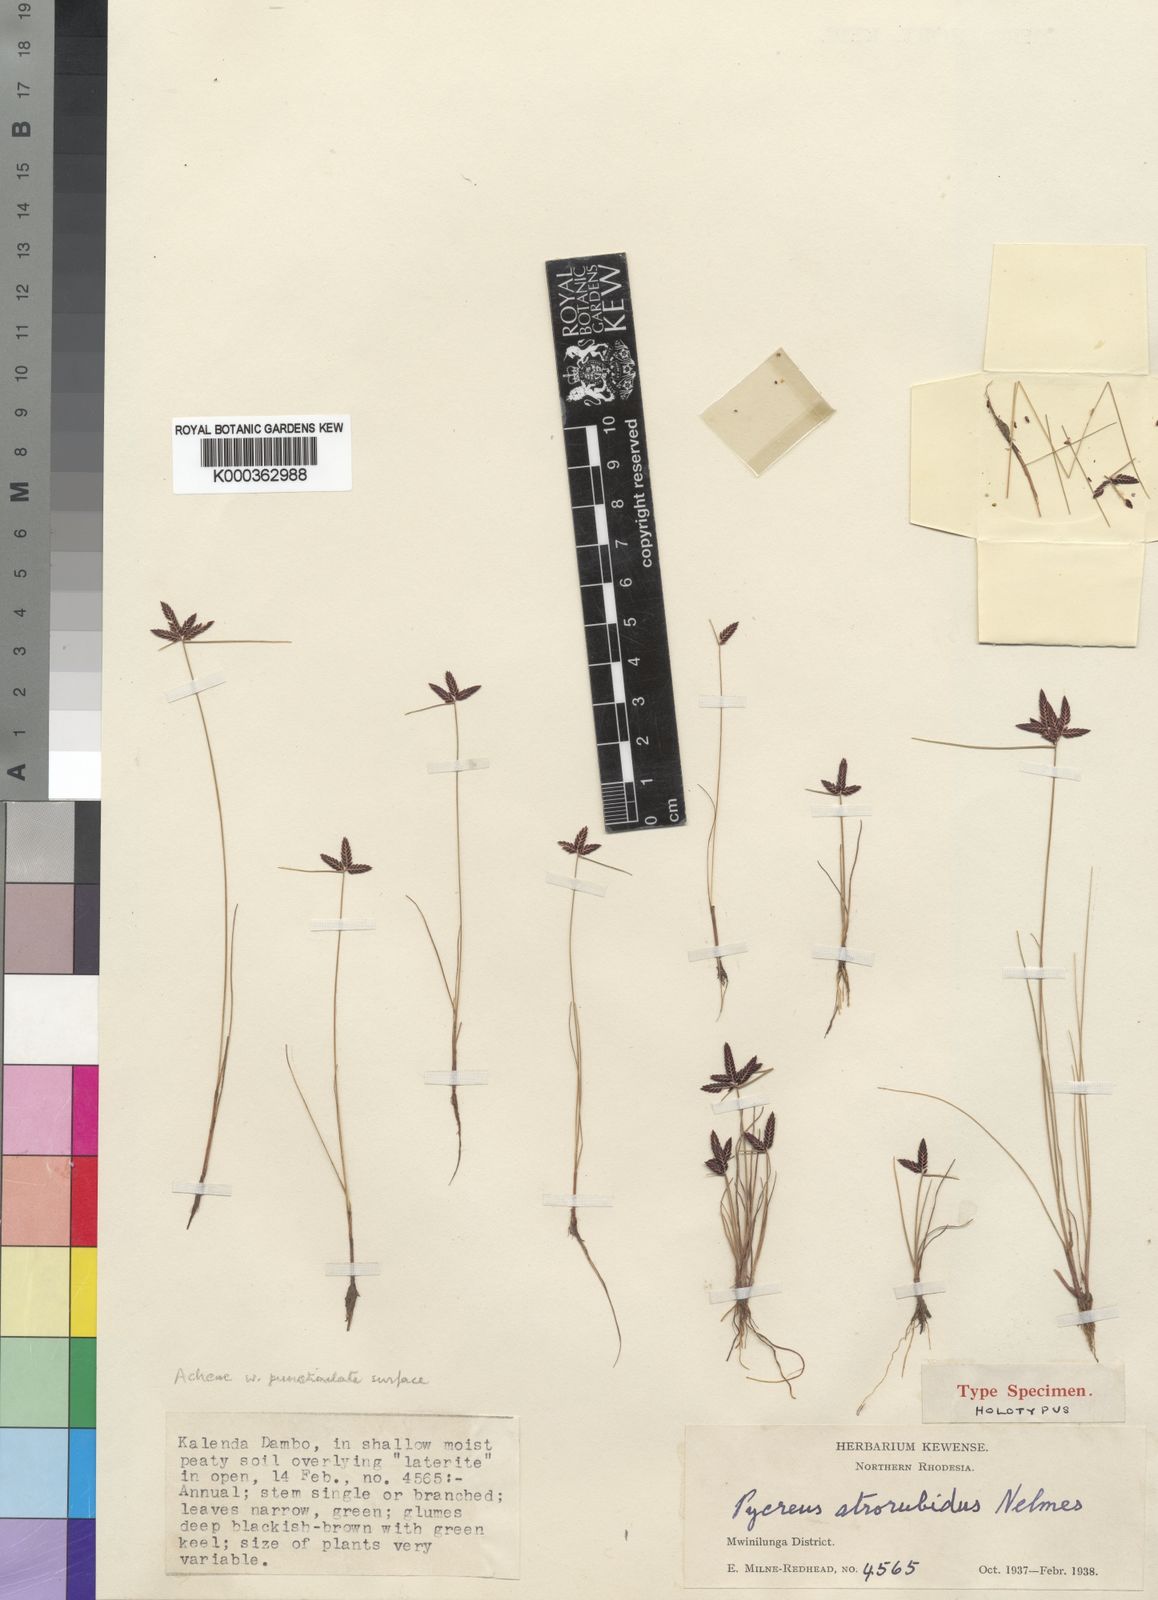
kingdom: Plantae
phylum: Tracheophyta
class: Liliopsida
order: Poales
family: Cyperaceae
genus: Cyperus
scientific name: Cyperus atrorubidus
